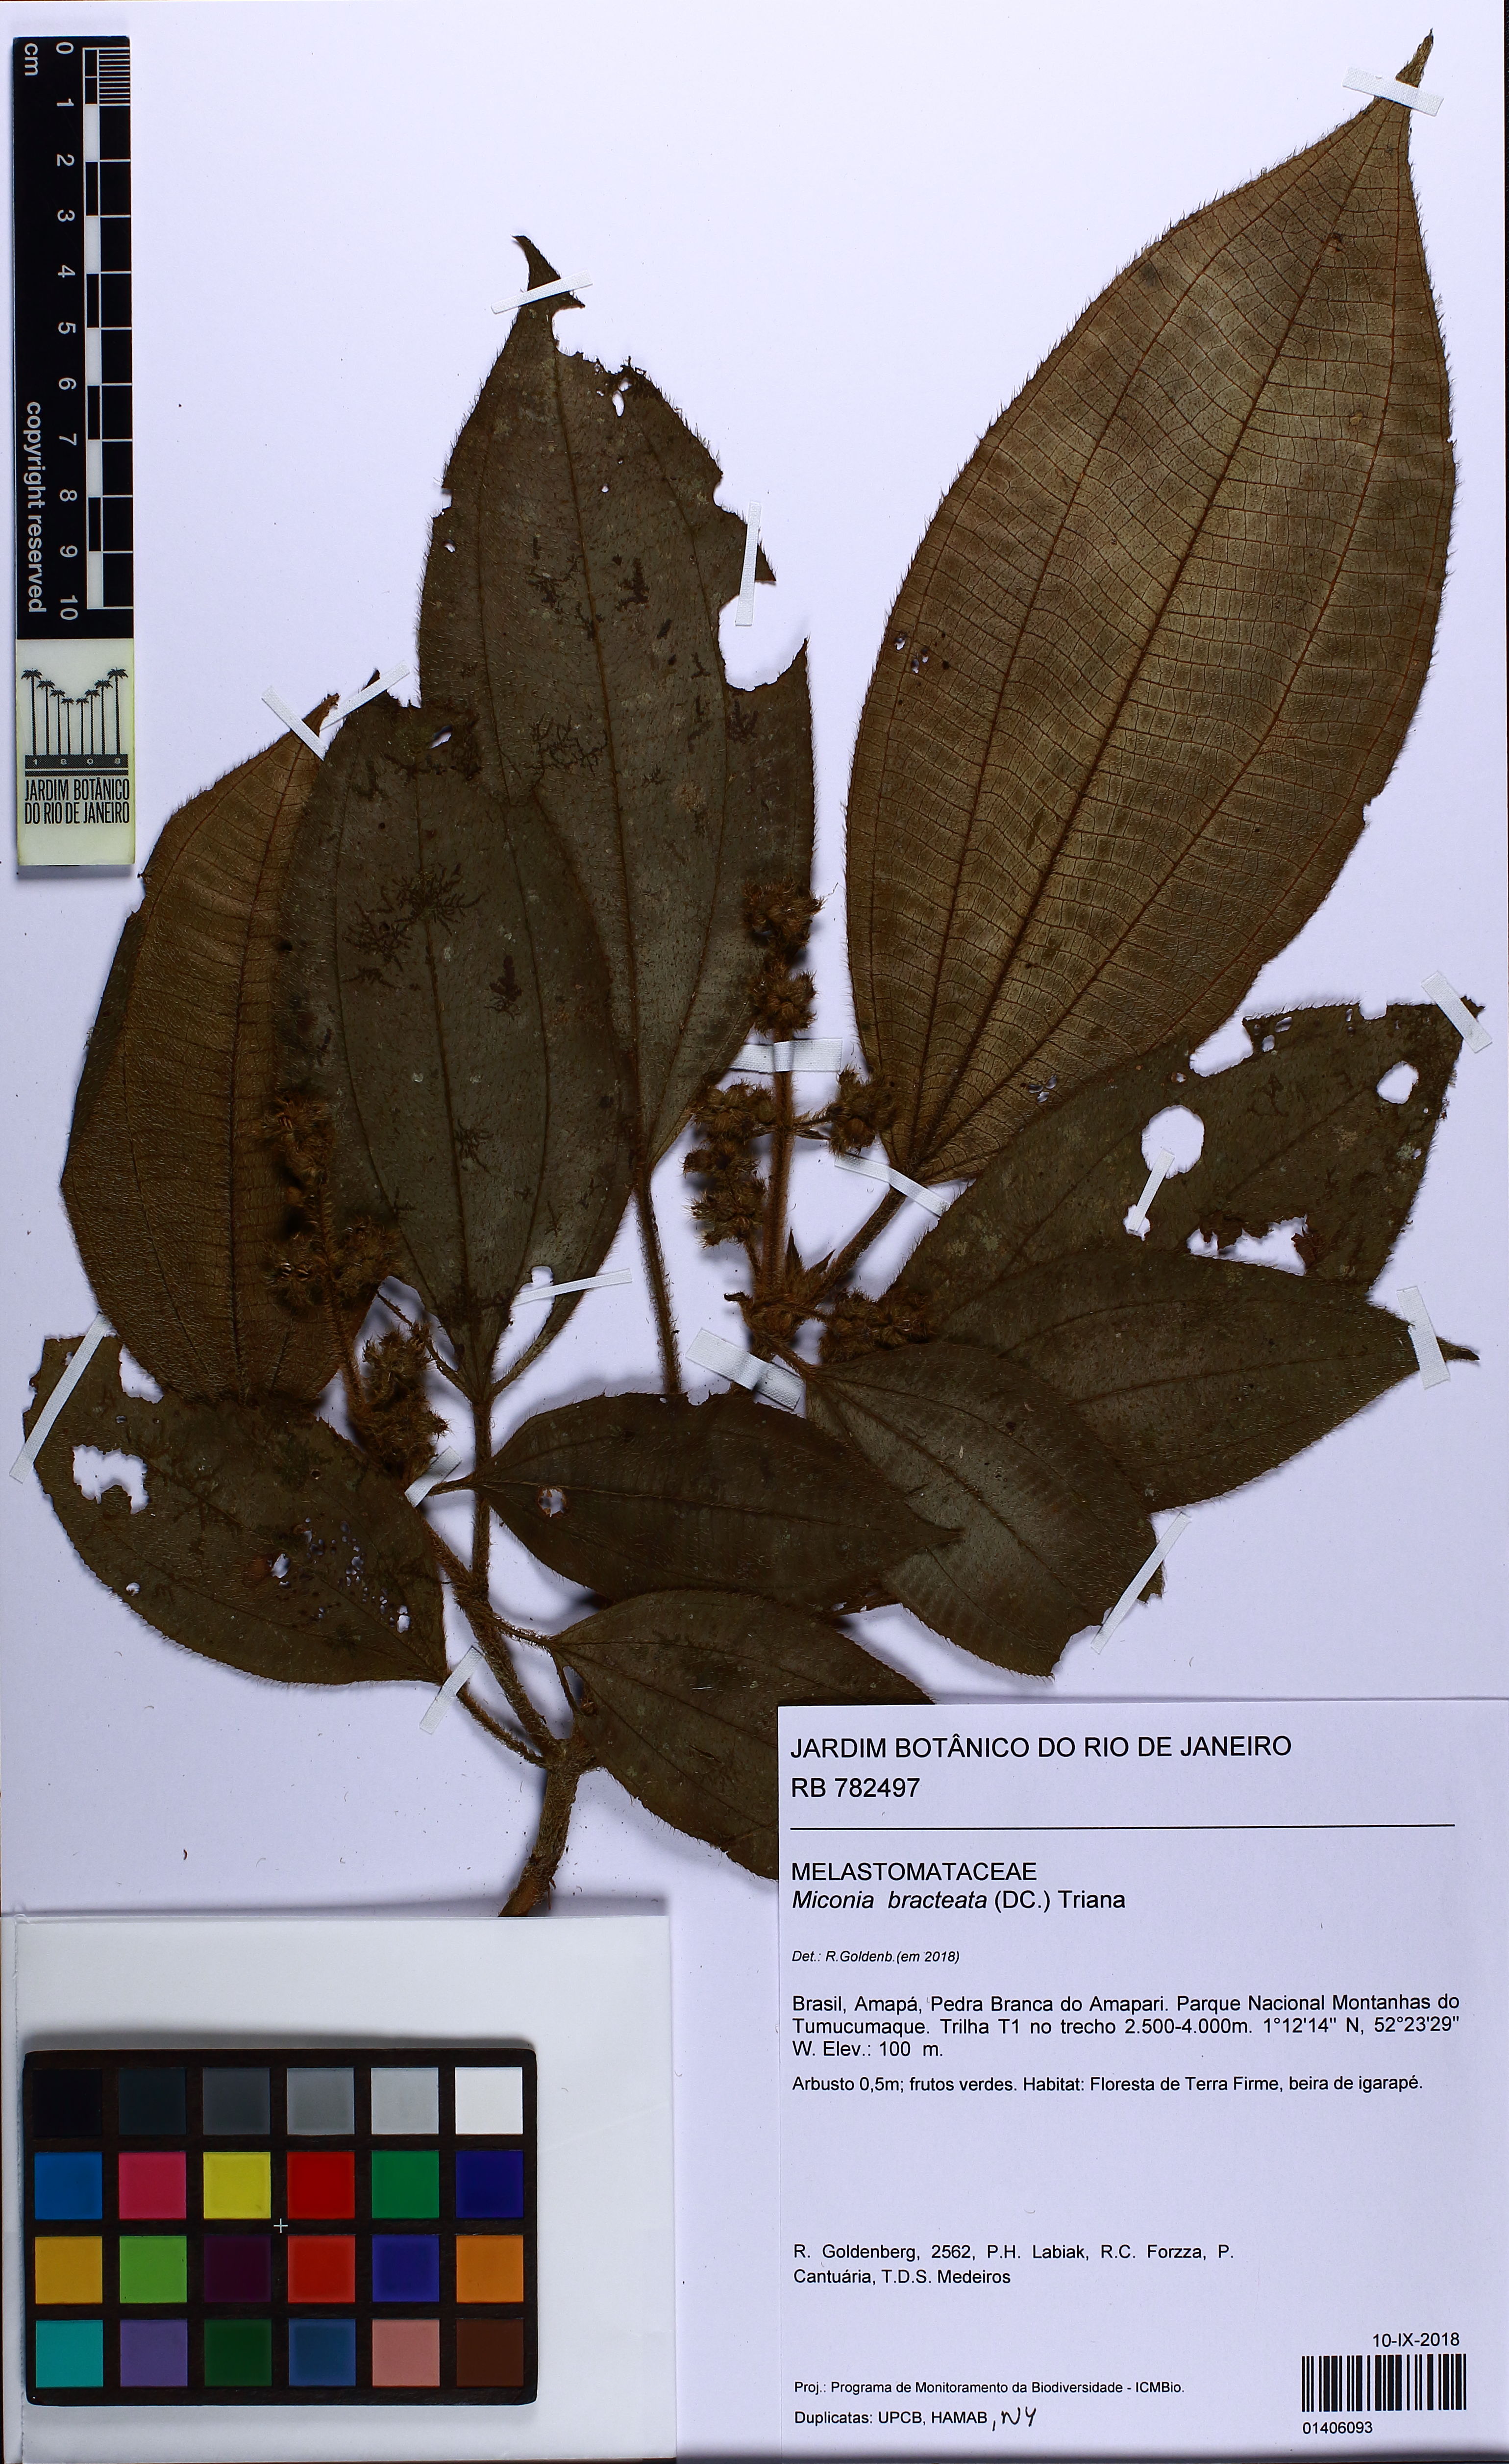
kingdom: Plantae
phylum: Tracheophyta
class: Magnoliopsida
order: Myrtales
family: Melastomataceae
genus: Miconia
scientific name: Miconia bracteata
